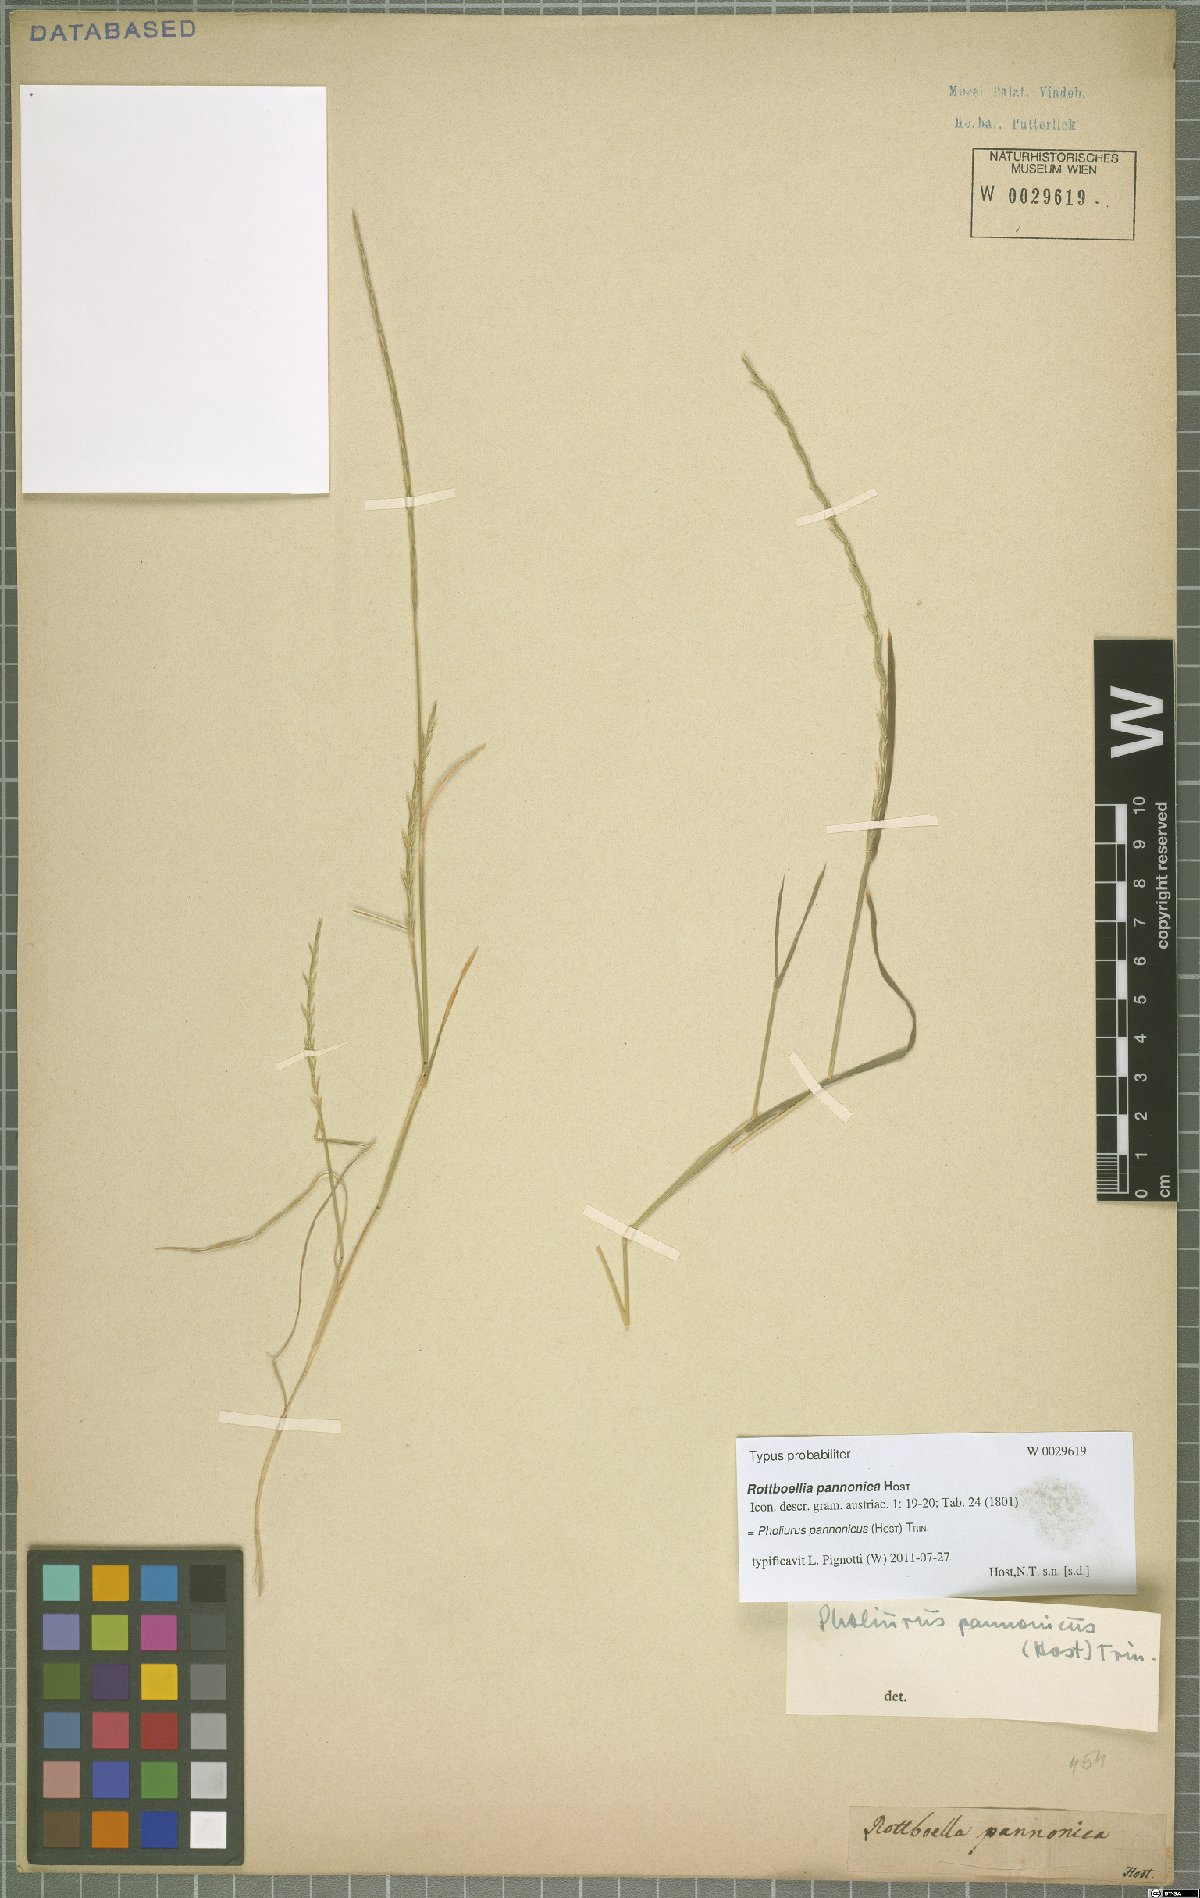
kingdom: Plantae
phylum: Tracheophyta
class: Liliopsida
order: Poales
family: Poaceae
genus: Pholiurus
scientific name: Pholiurus pannonicus
